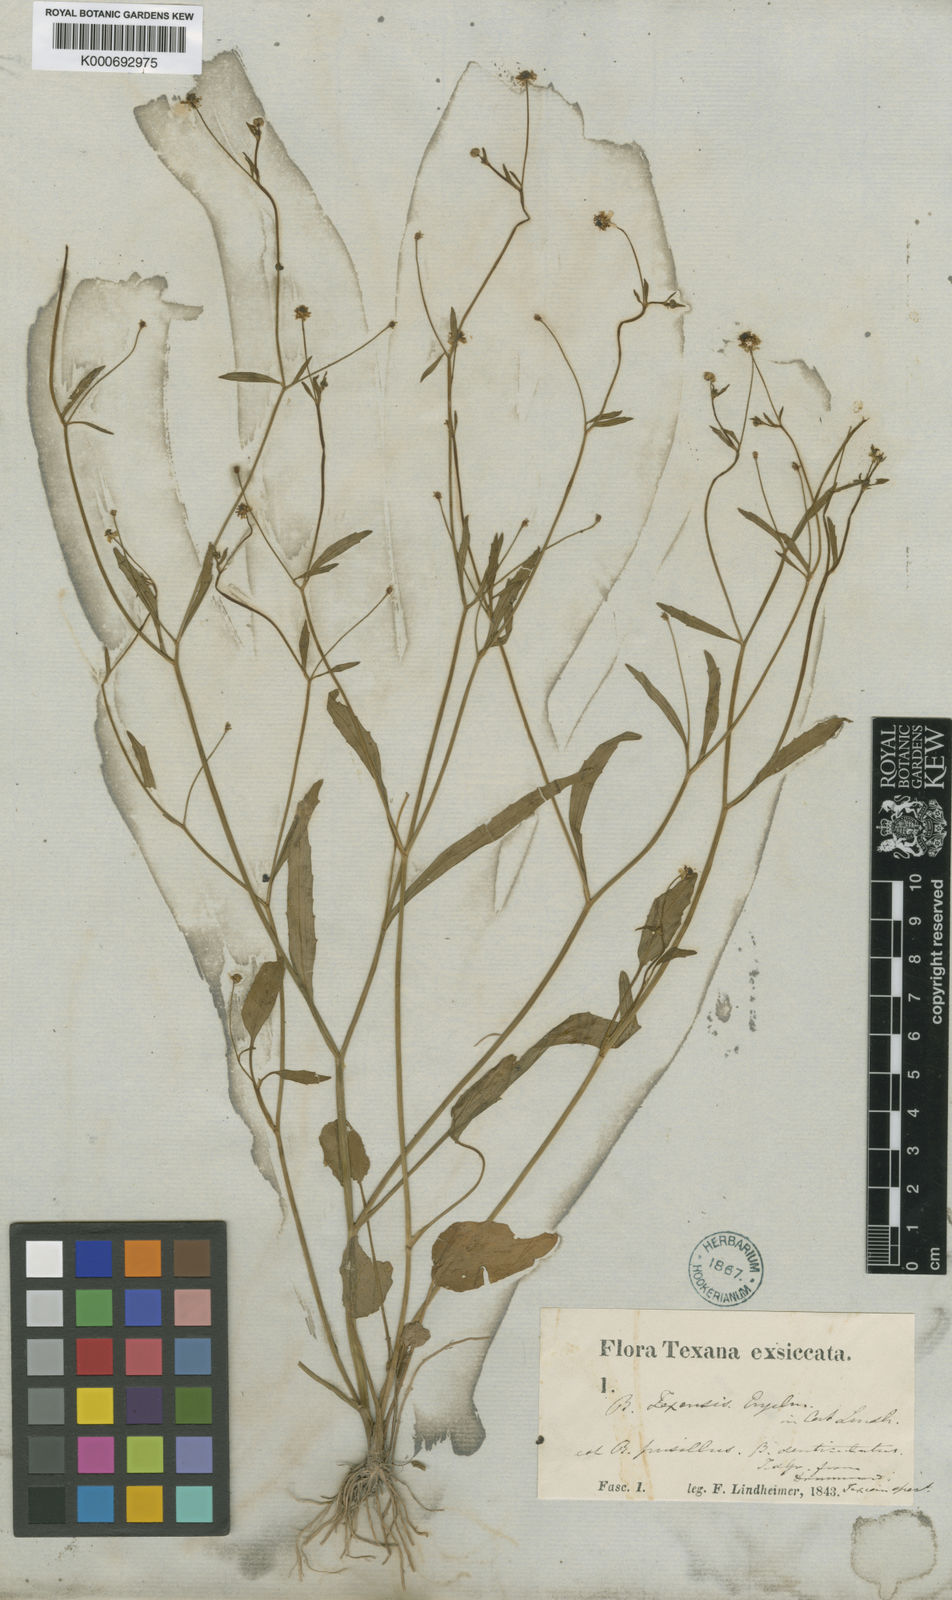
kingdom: Plantae
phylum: Tracheophyta
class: Magnoliopsida
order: Ranunculales
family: Ranunculaceae
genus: Ranunculus
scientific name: Ranunculus pusillus
